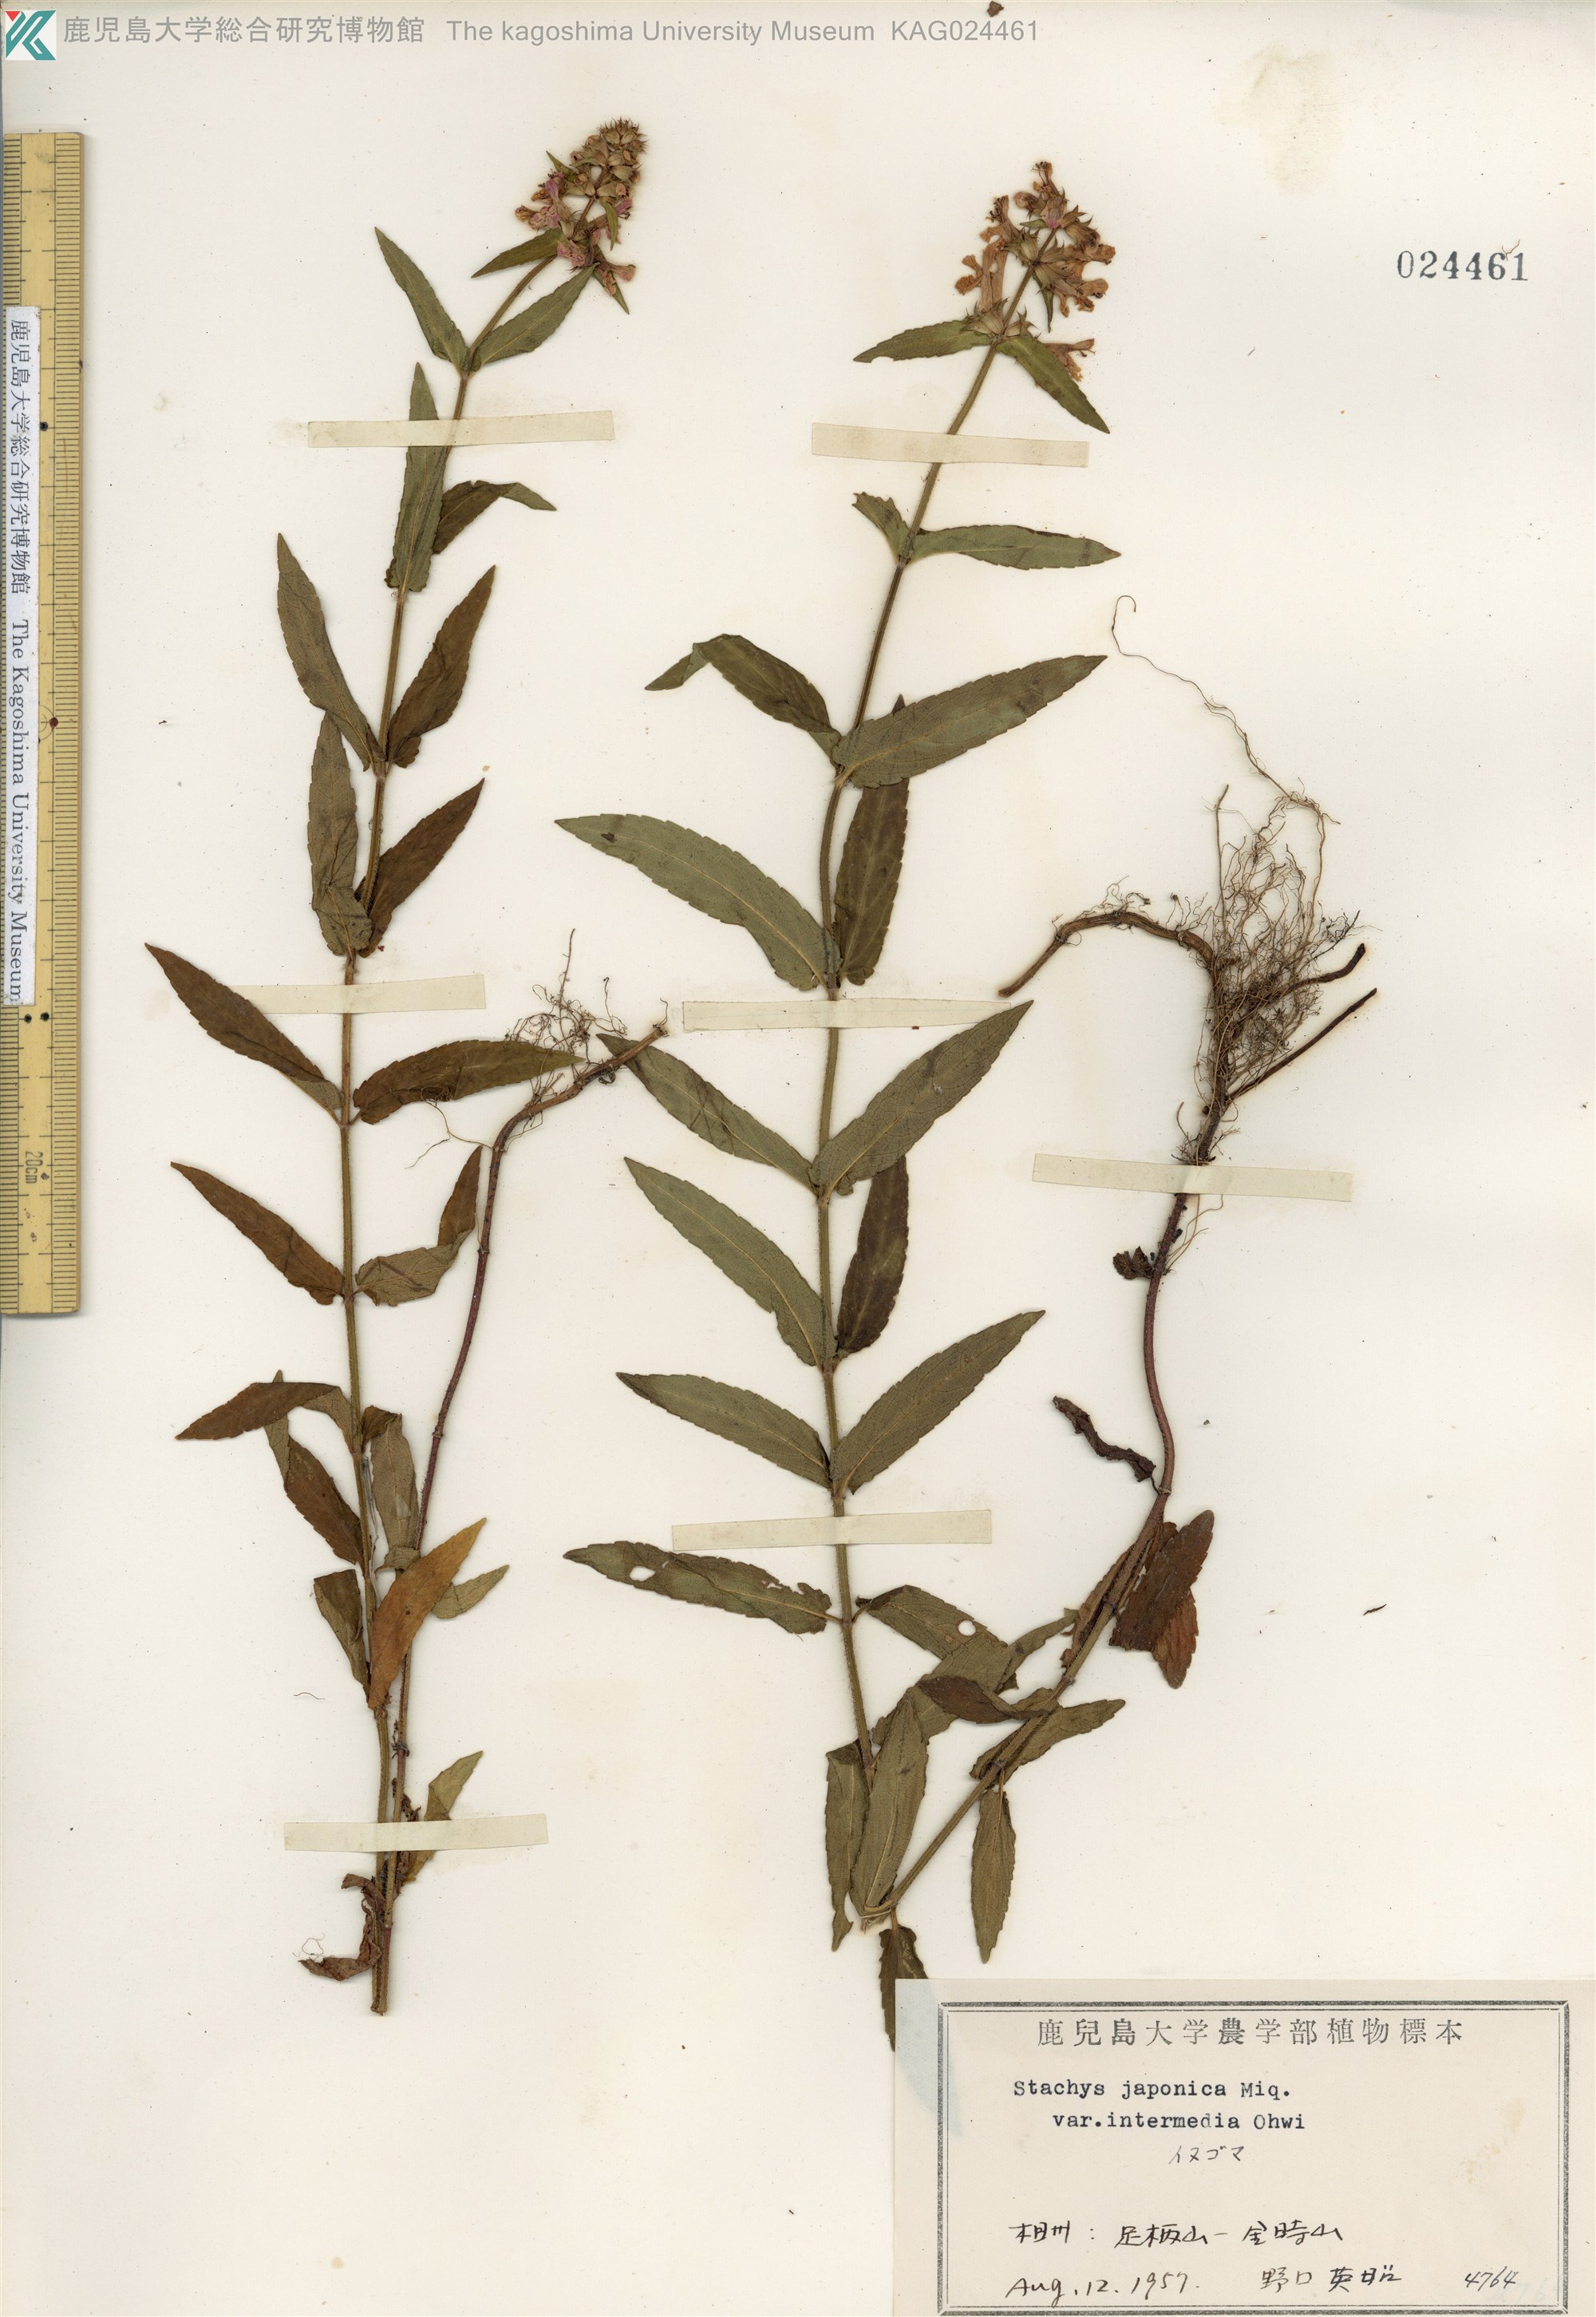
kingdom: Plantae
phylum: Tracheophyta
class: Magnoliopsida
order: Lamiales
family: Lamiaceae
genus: Stachys
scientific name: Stachys aspera
